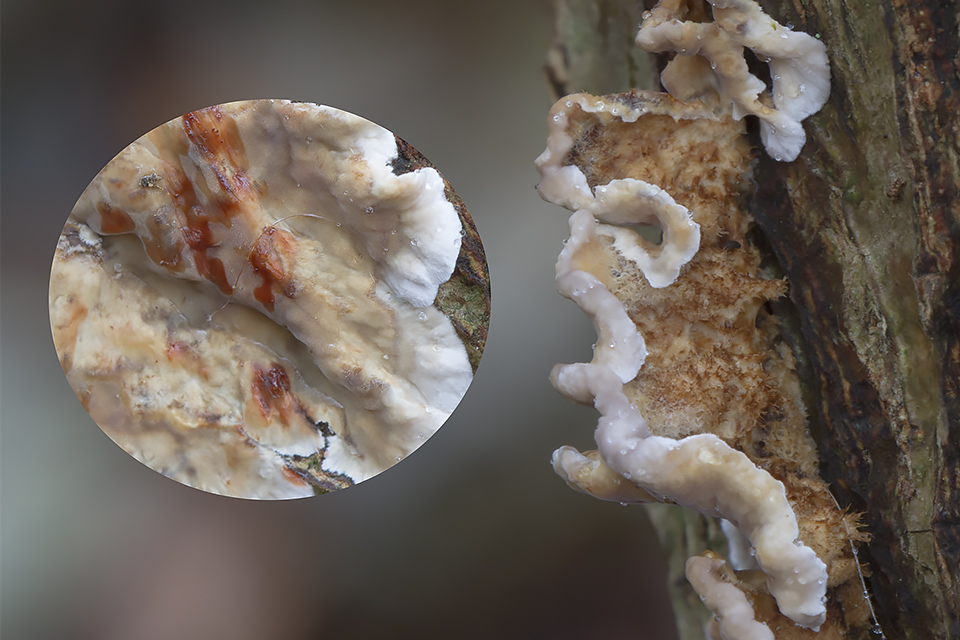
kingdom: Fungi
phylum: Basidiomycota
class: Agaricomycetes
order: Russulales
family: Stereaceae
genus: Stereum
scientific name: Stereum gausapatum
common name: tynd lædersvamp
